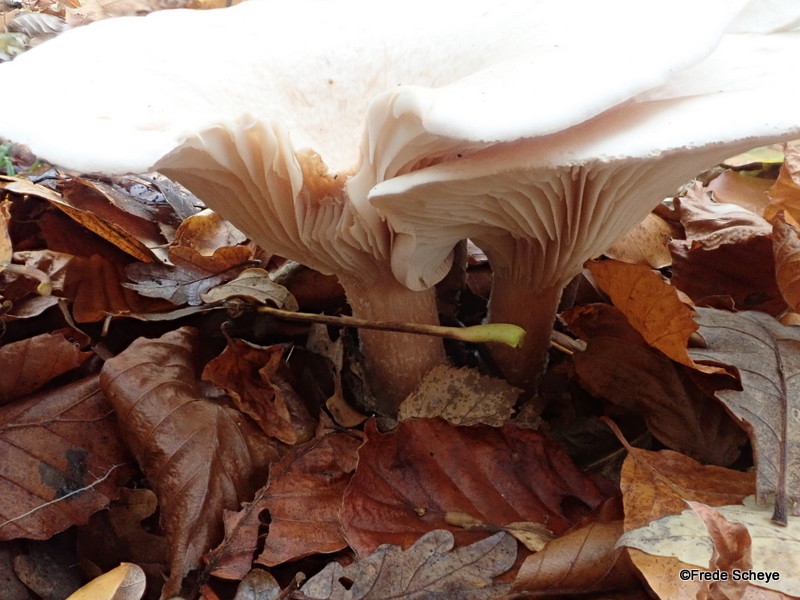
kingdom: Fungi
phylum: Basidiomycota
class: Agaricomycetes
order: Agaricales
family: Tricholomataceae
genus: Infundibulicybe
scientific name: Infundibulicybe geotropa
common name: stor tragthat
